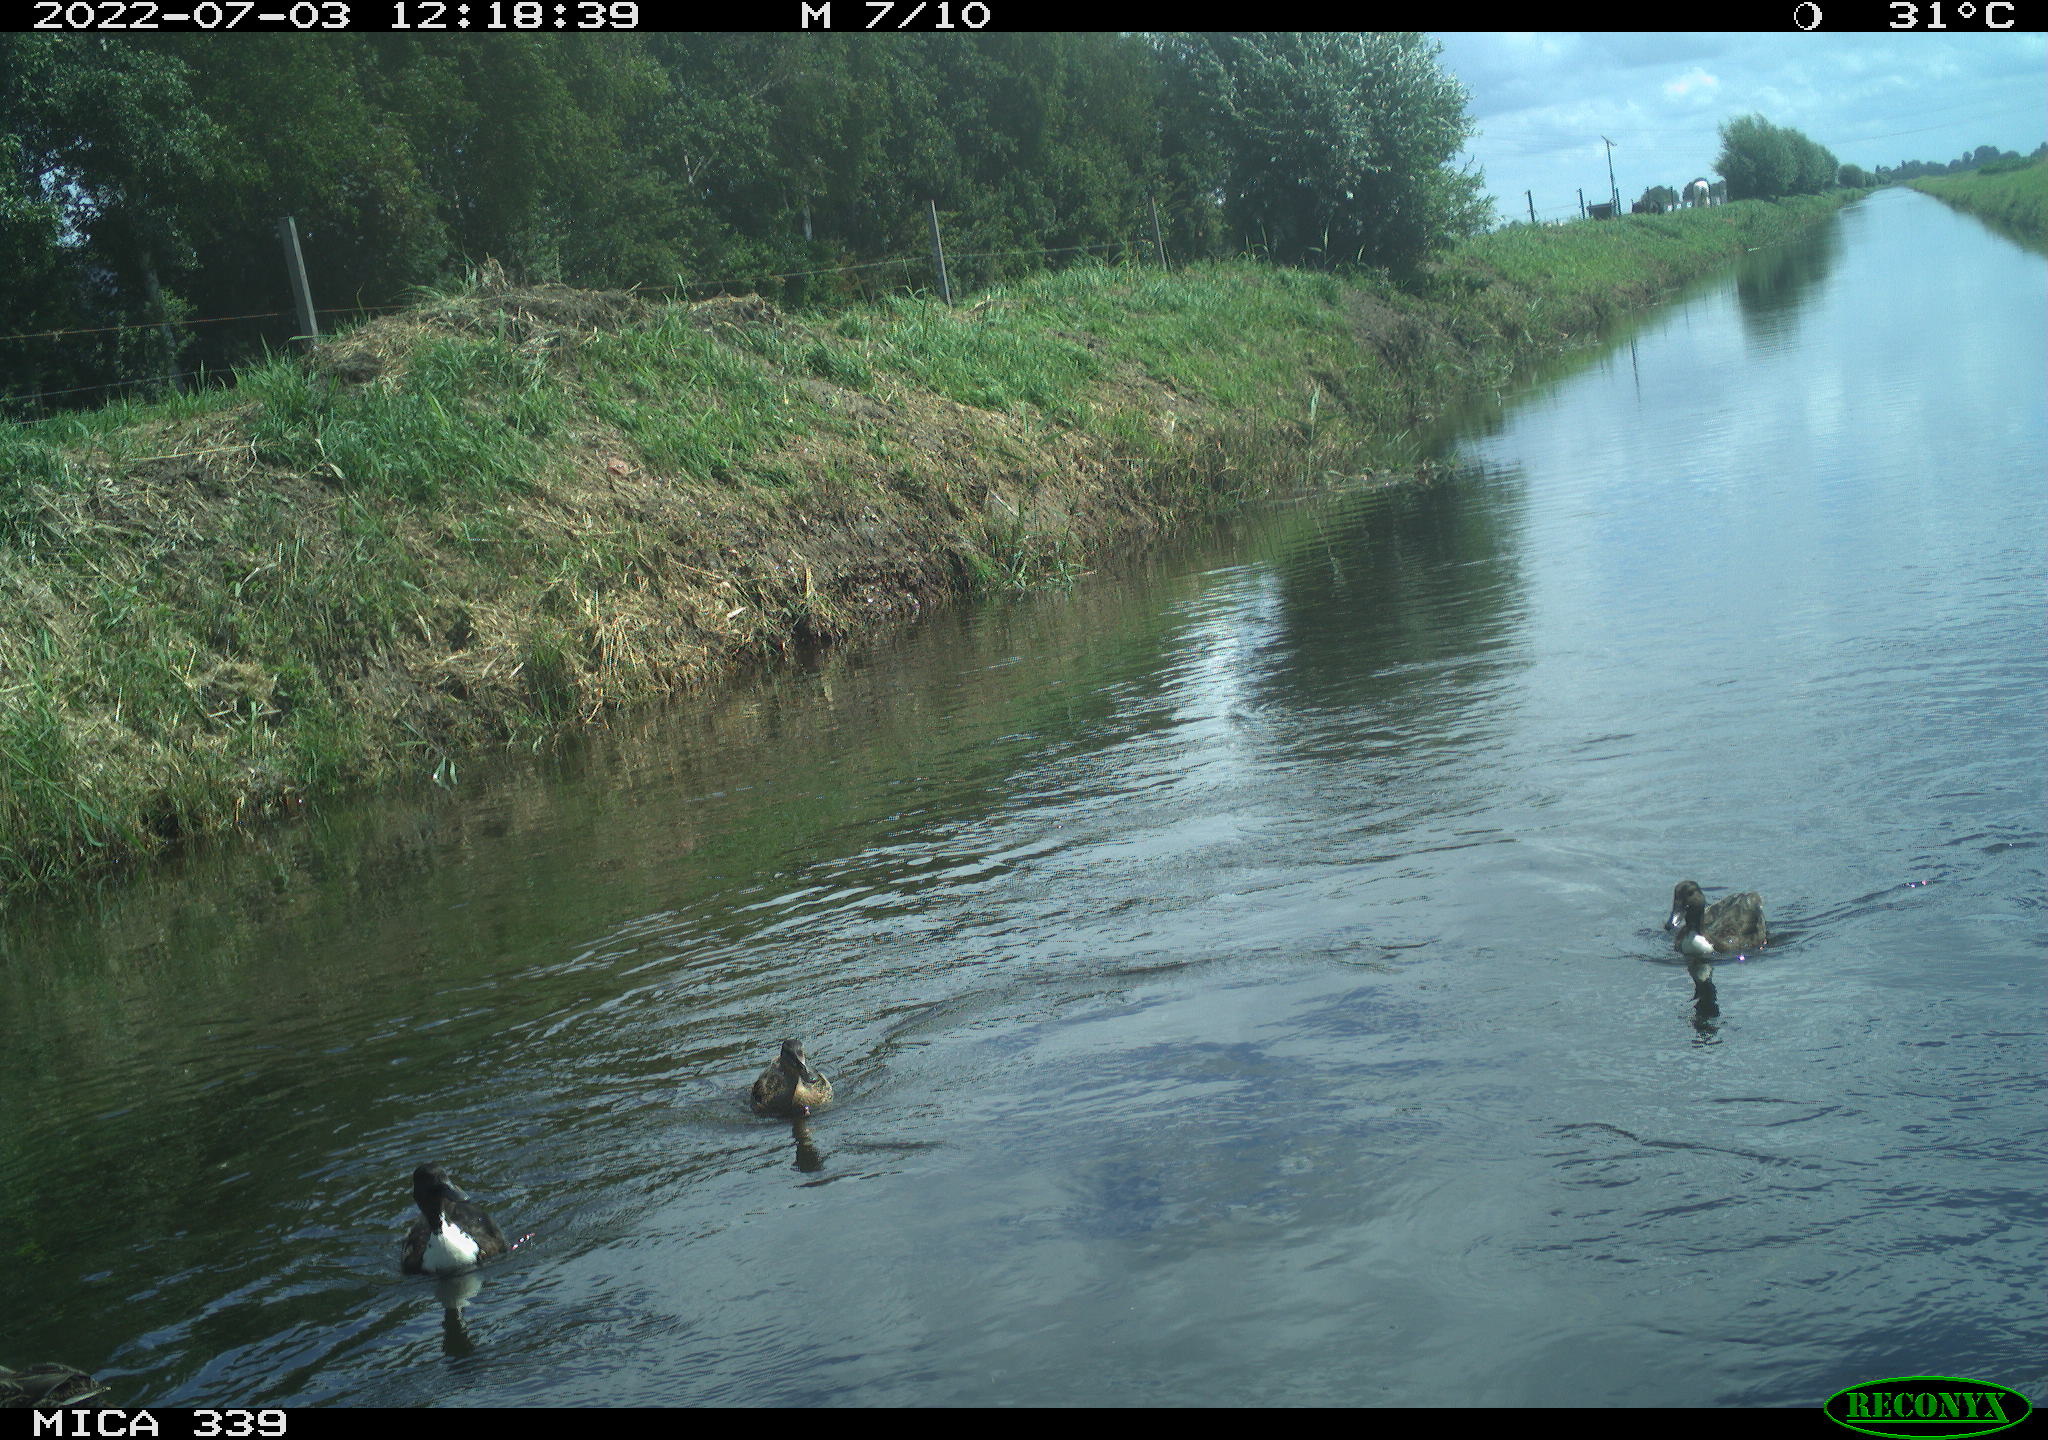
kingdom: Animalia
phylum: Chordata
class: Aves
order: Anseriformes
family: Anatidae
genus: Anas
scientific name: Anas platyrhynchos
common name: Mallard
